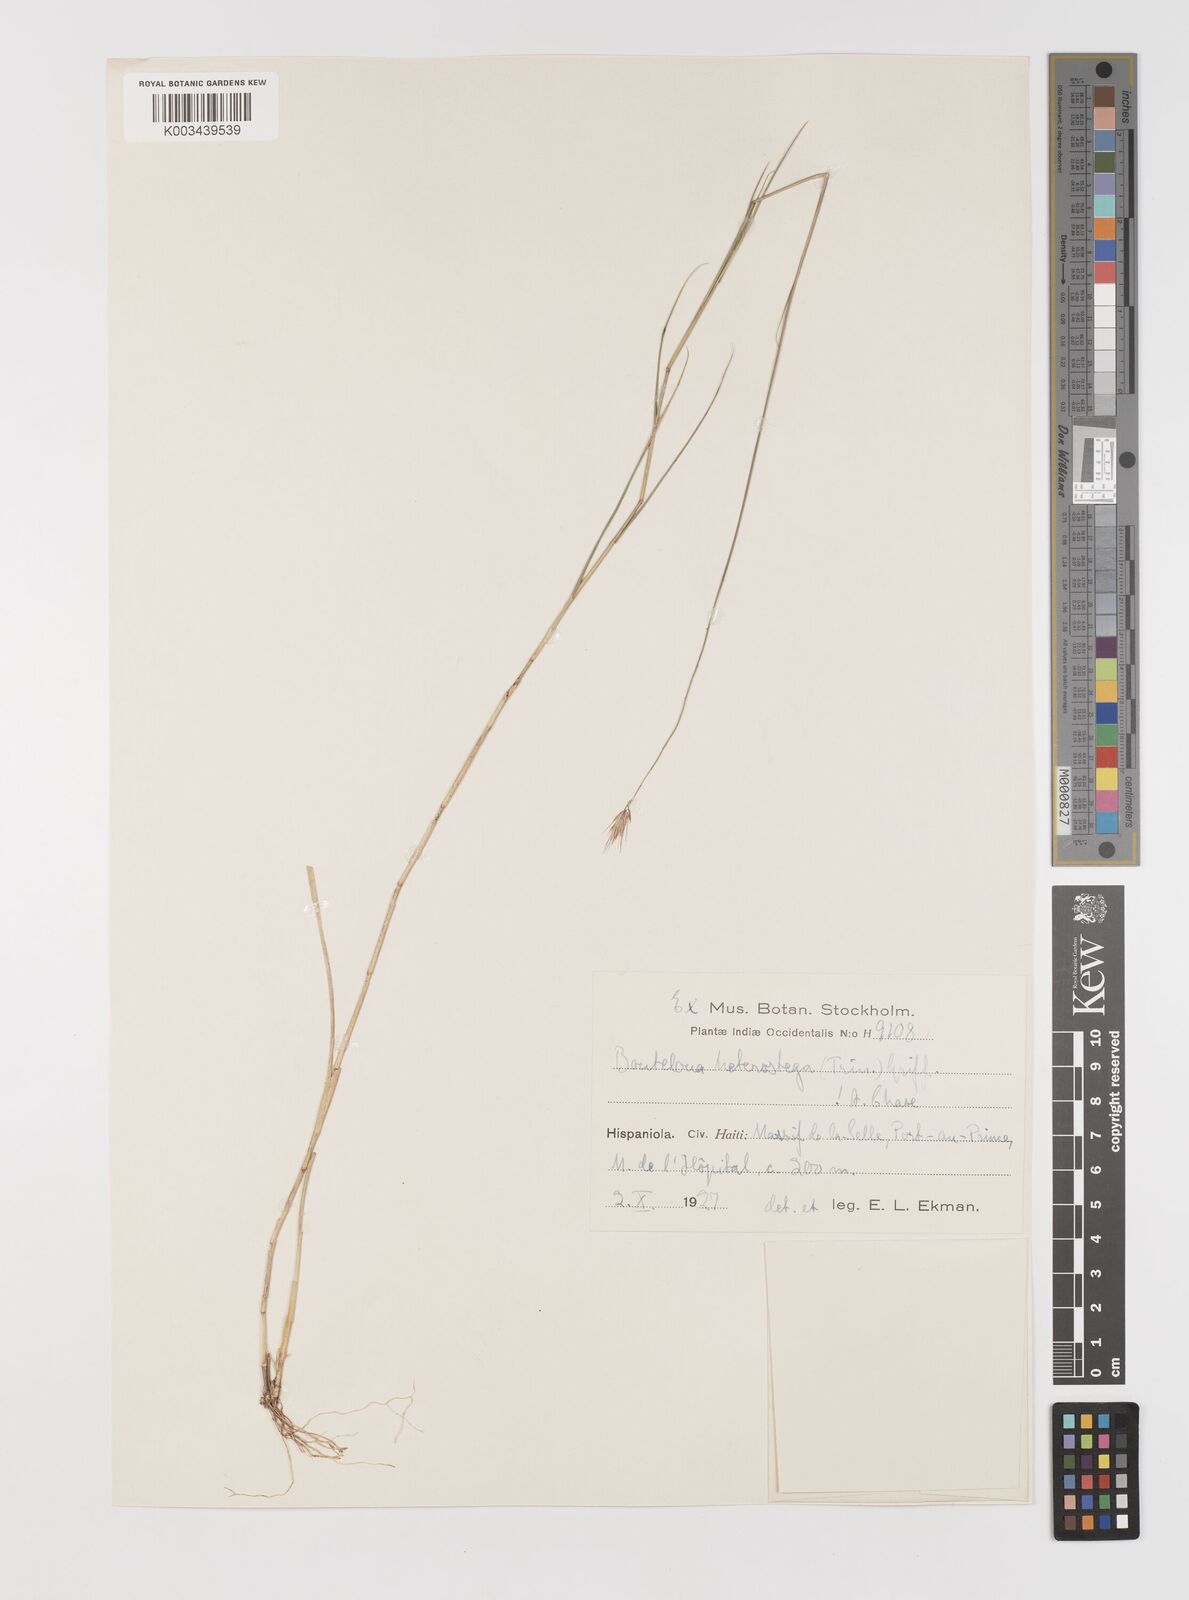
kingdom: Plantae
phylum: Tracheophyta
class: Liliopsida
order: Poales
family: Poaceae
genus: Bouteloua
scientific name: Bouteloua repens
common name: Slender grama
